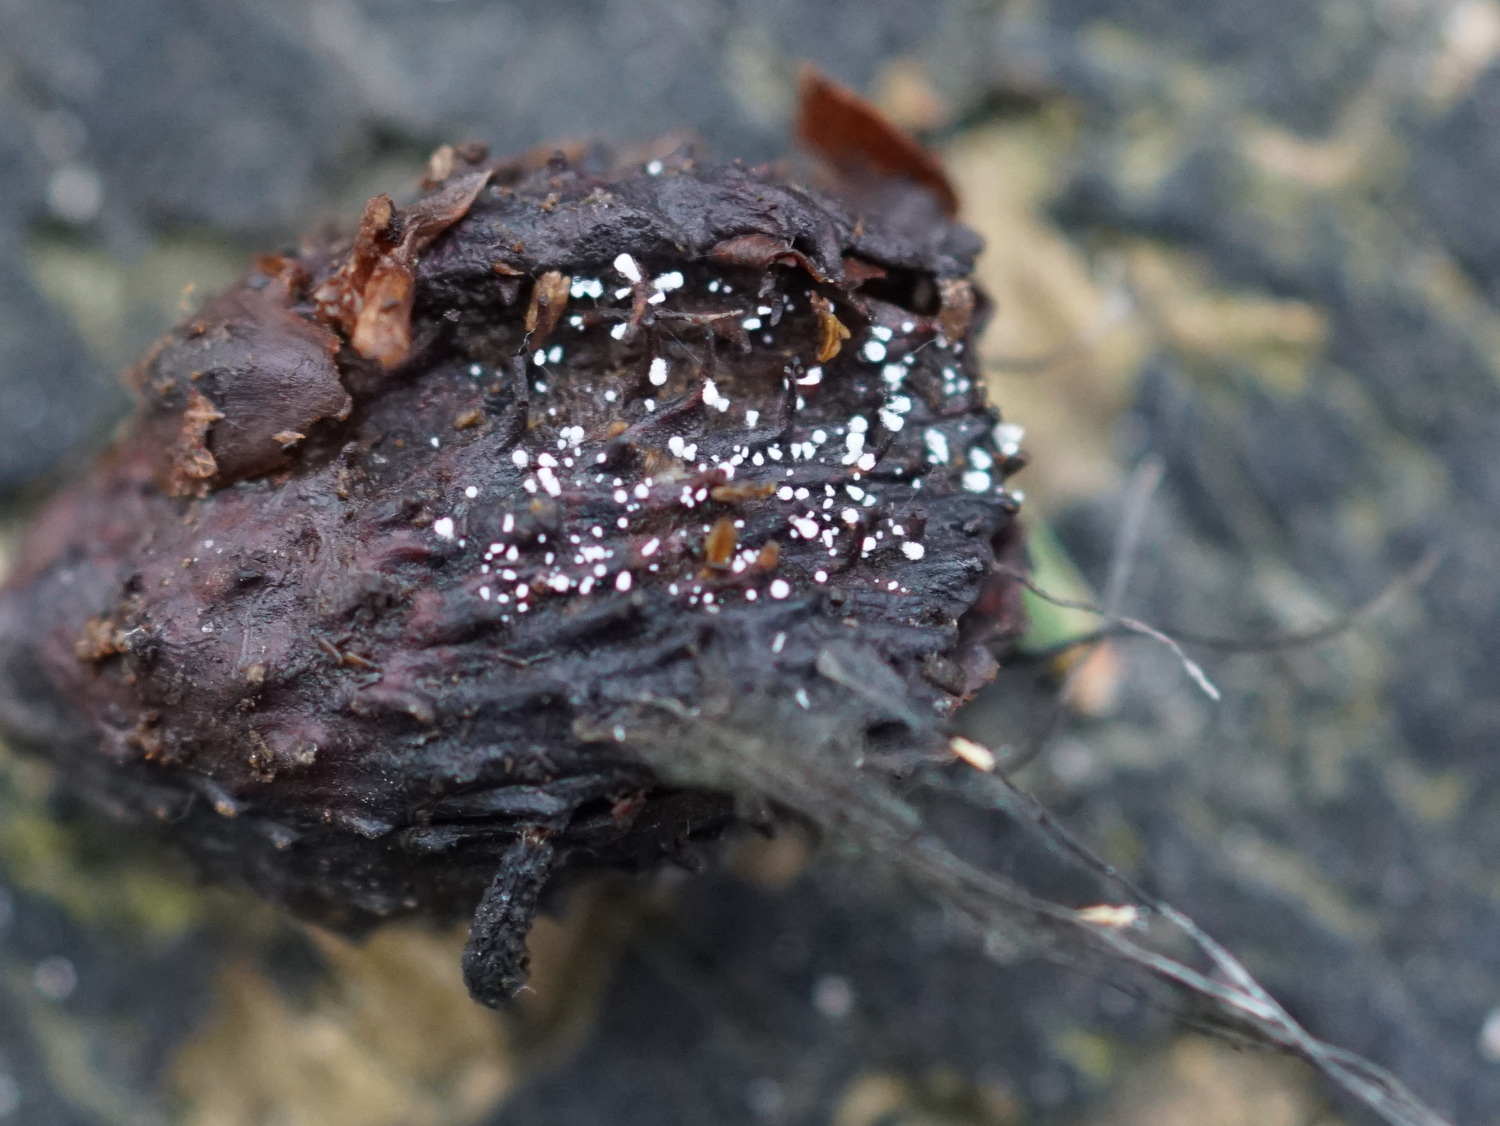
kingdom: Fungi
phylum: Ascomycota
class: Leotiomycetes
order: Helotiales
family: Lachnaceae
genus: Lachnum
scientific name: Lachnum virgineum
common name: jomfru-frynseskive
